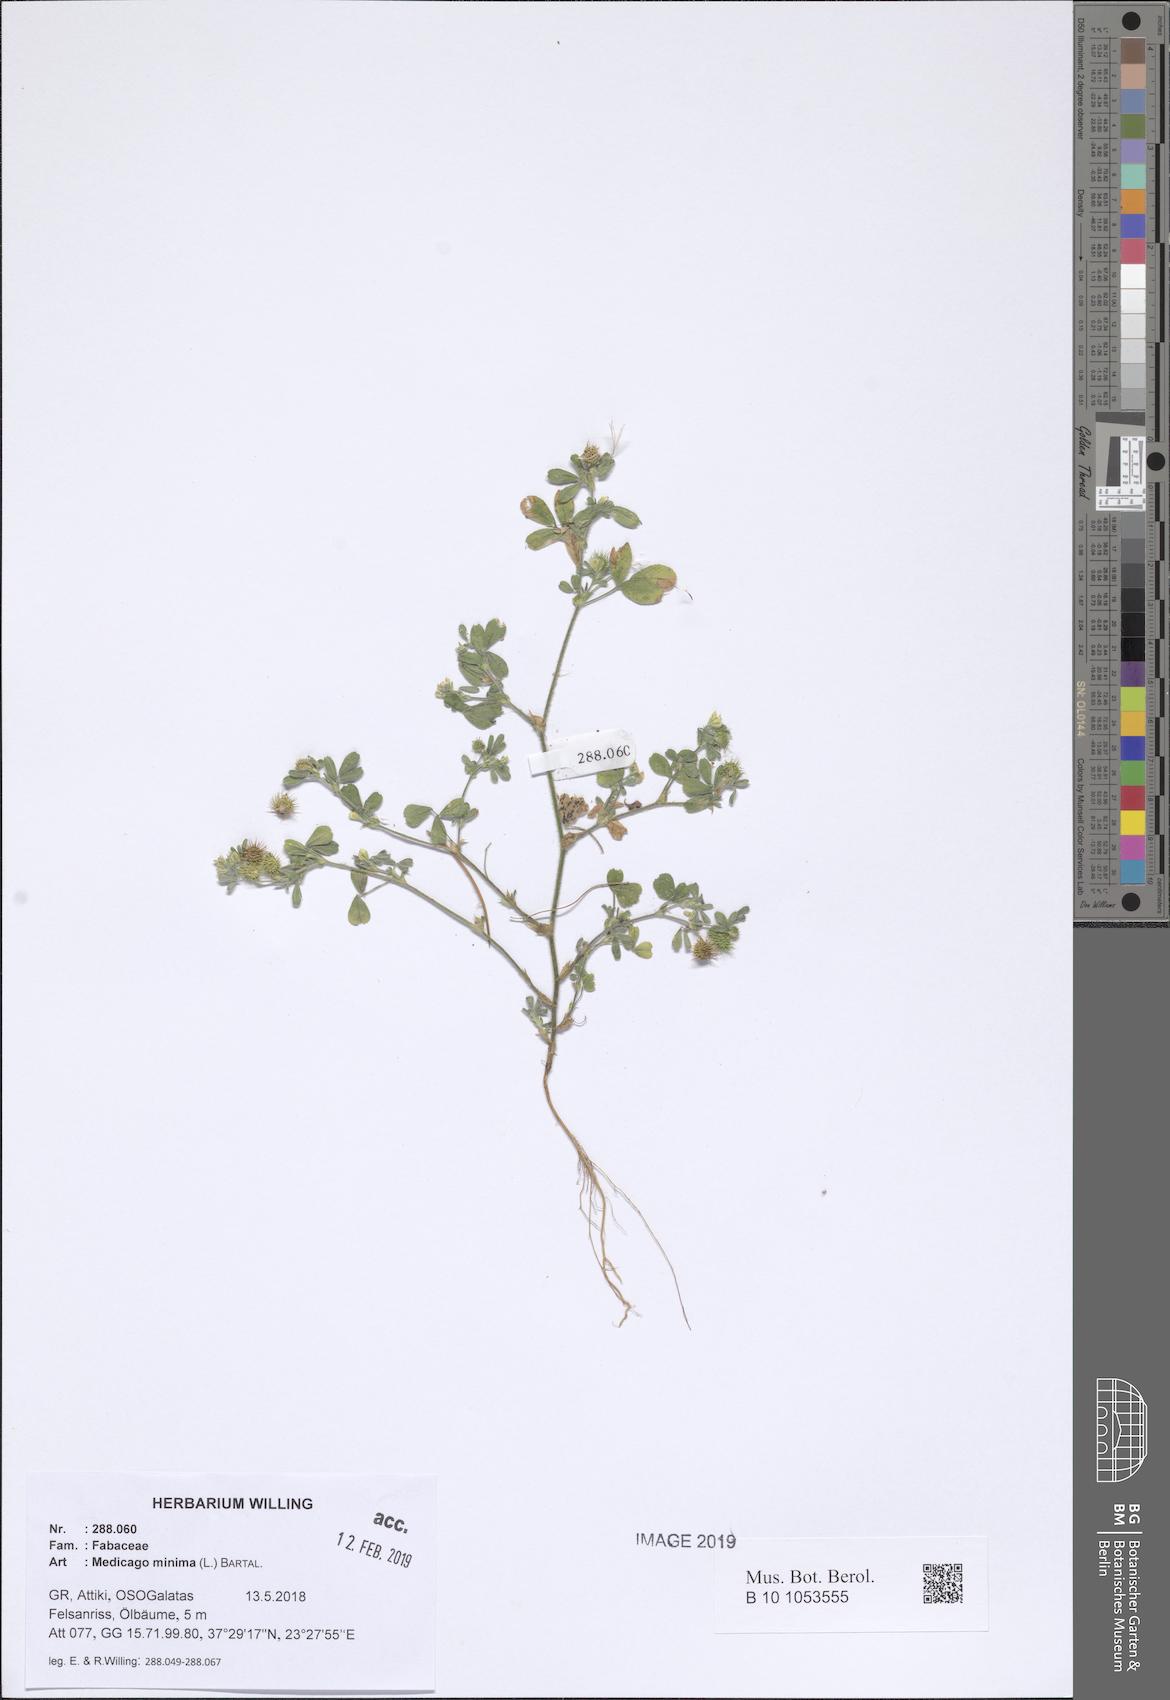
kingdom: Plantae
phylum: Tracheophyta
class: Magnoliopsida
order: Fabales
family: Fabaceae
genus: Medicago
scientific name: Medicago minima
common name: Little bur-clover
